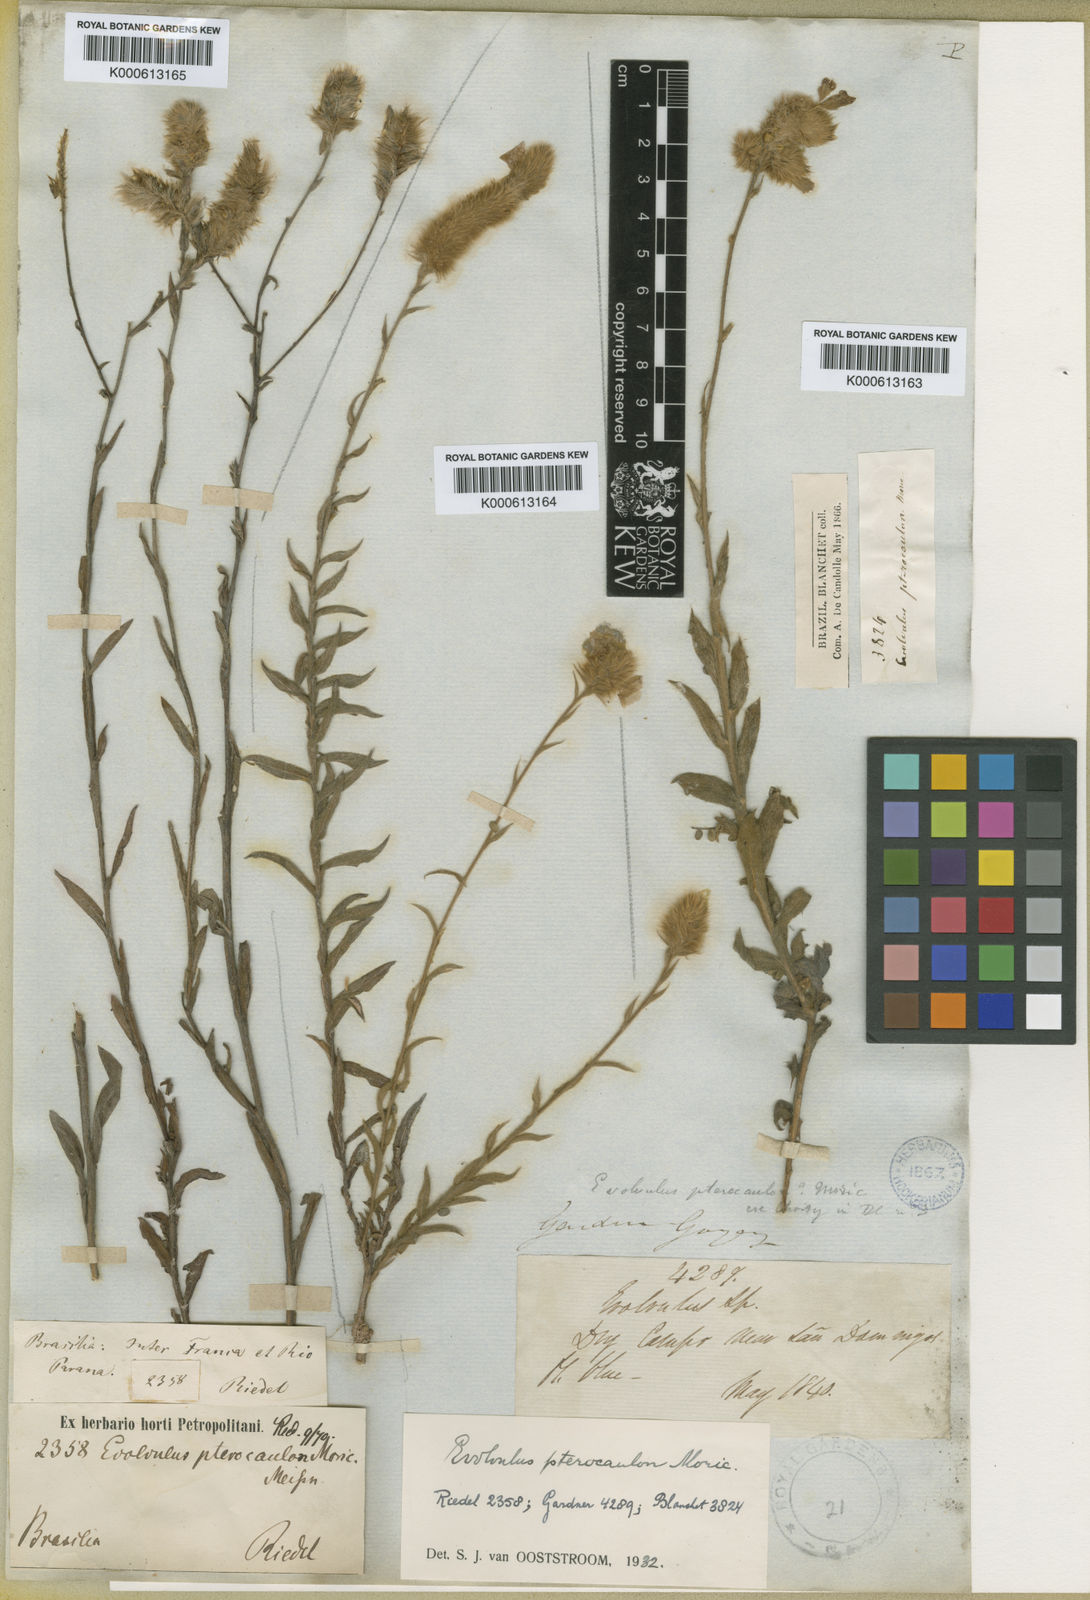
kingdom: Plantae
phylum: Tracheophyta
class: Magnoliopsida
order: Solanales
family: Convolvulaceae
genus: Evolvulus
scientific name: Evolvulus pterocaulon
